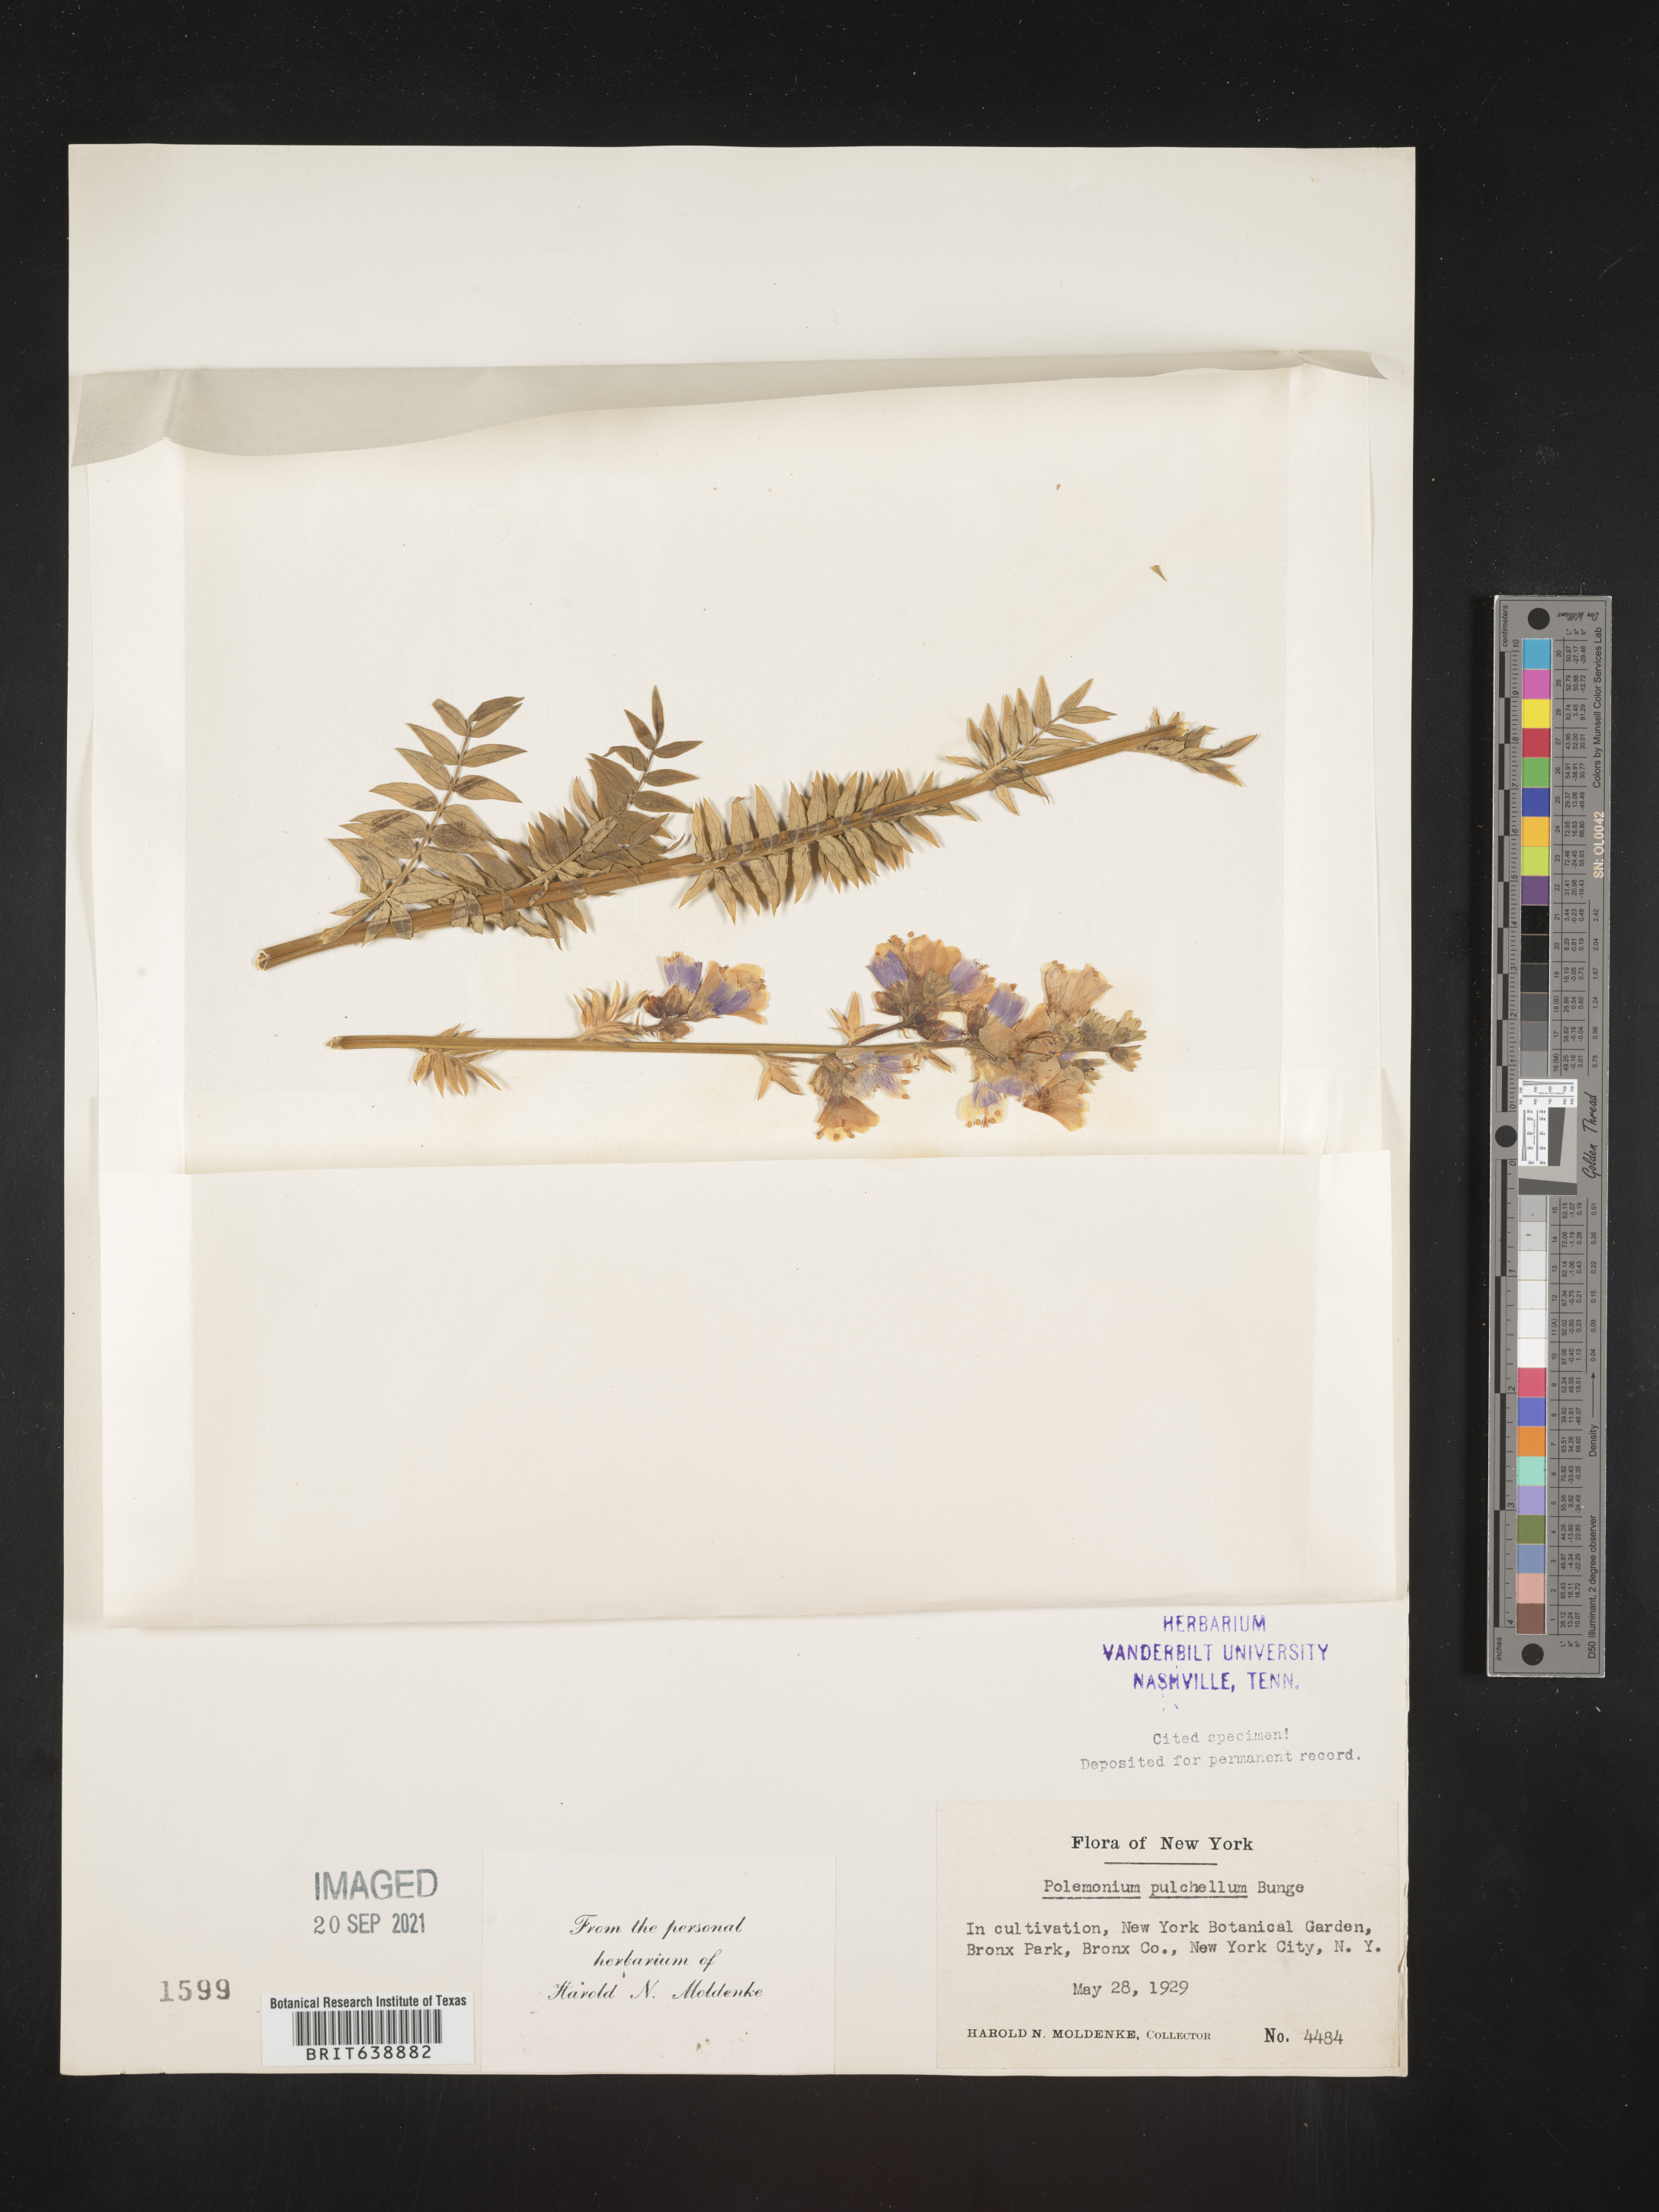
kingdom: Plantae
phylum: Tracheophyta
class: Magnoliopsida
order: Ericales
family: Polemoniaceae
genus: Polemonium
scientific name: Polemonium
